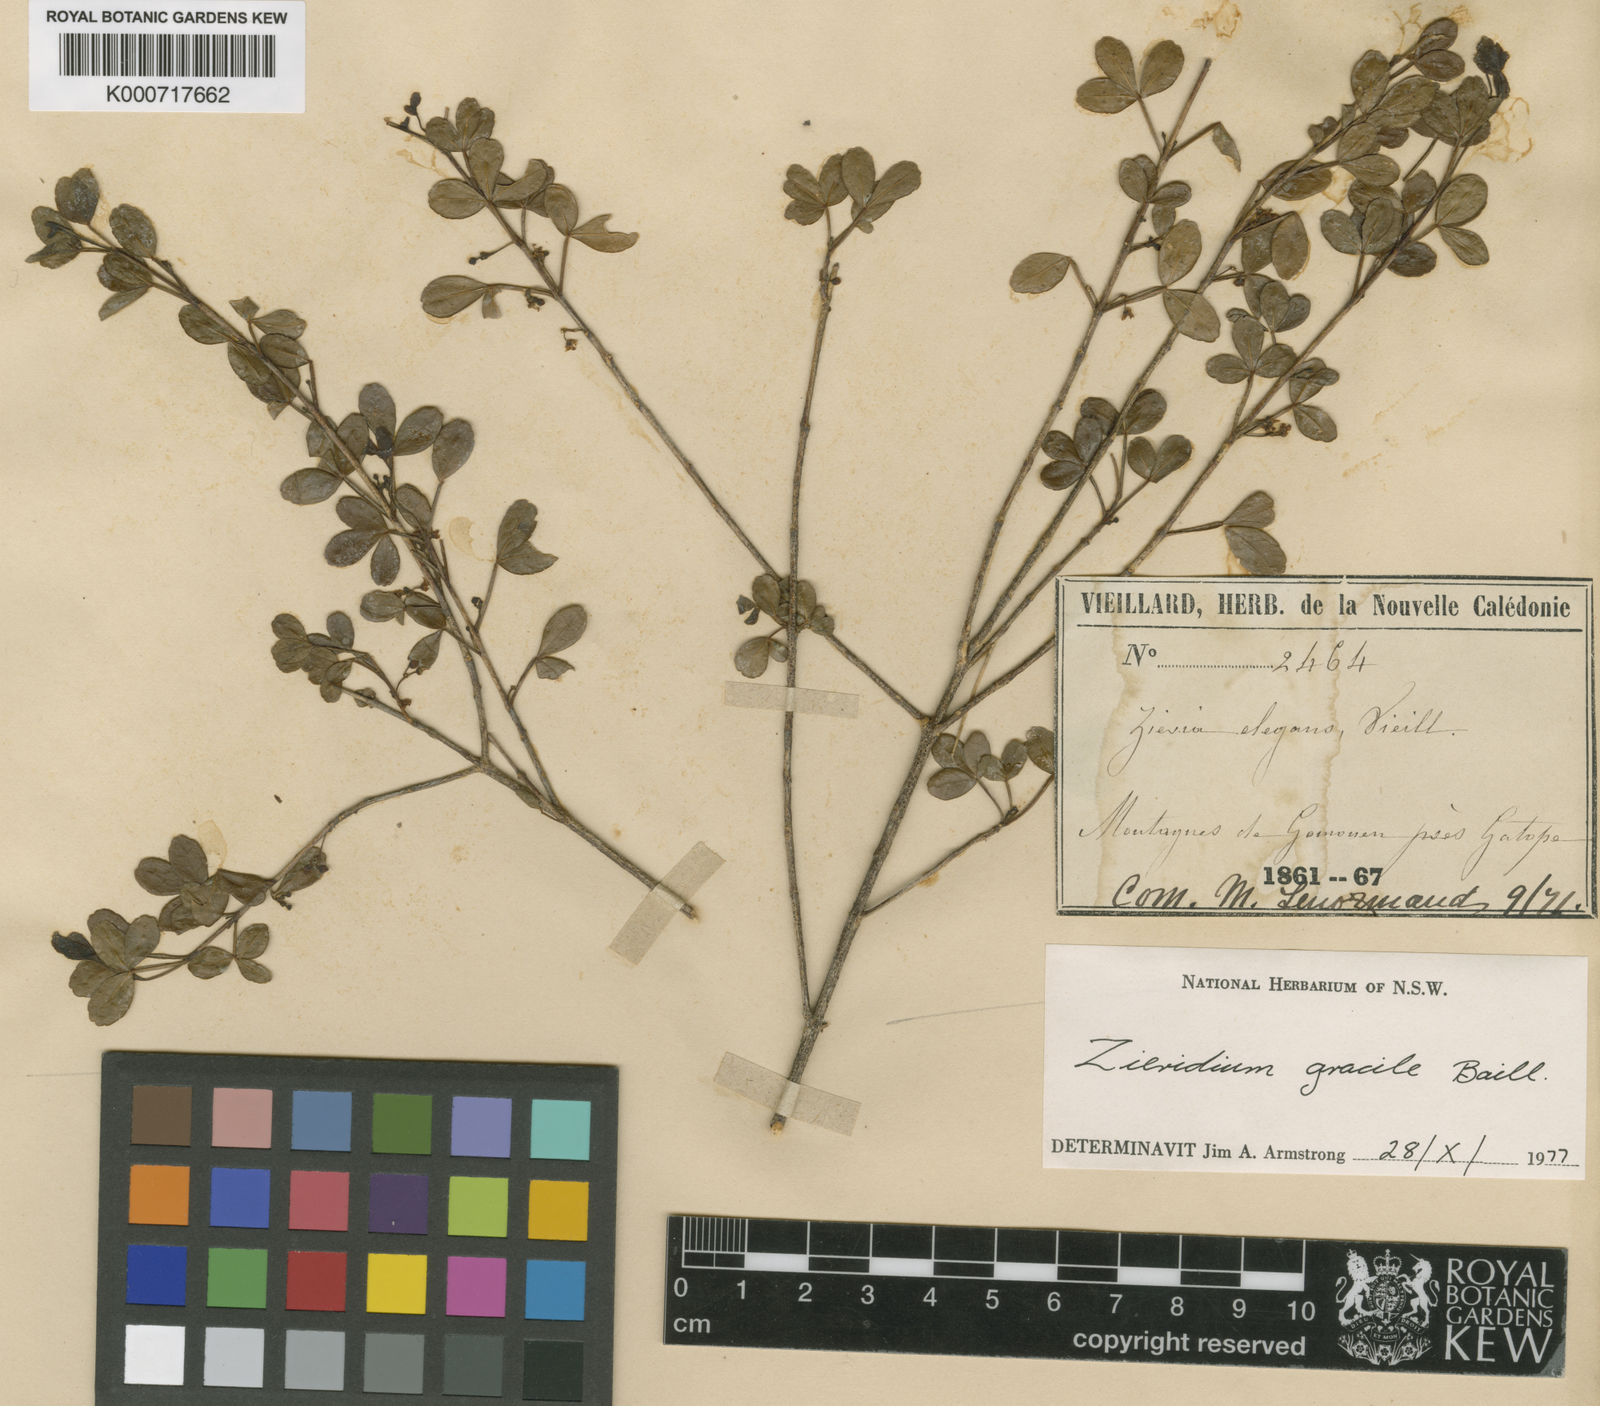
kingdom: Plantae
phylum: Tracheophyta
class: Magnoliopsida
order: Sapindales
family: Rutaceae
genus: Melicope
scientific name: Melicope pteleifolia
